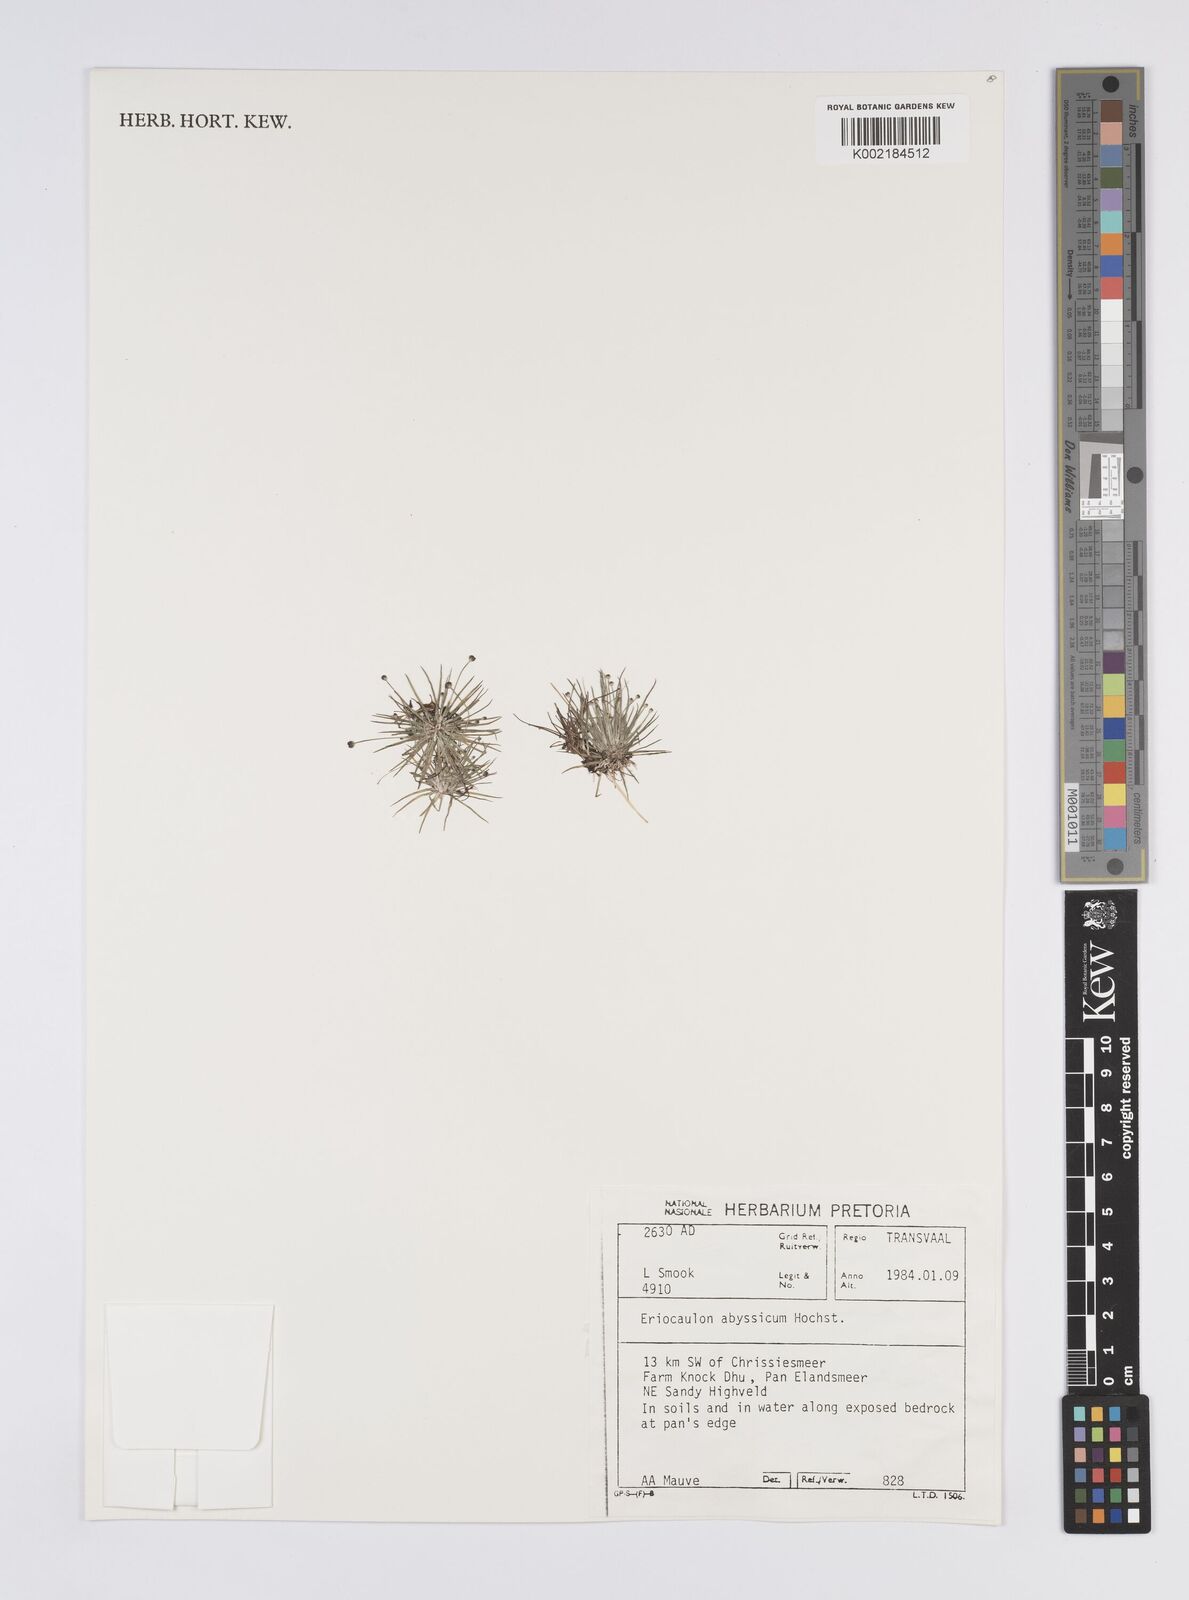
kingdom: Plantae
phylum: Tracheophyta
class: Liliopsida
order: Poales
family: Eriocaulaceae
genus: Eriocaulon
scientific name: Eriocaulon abyssinicum
